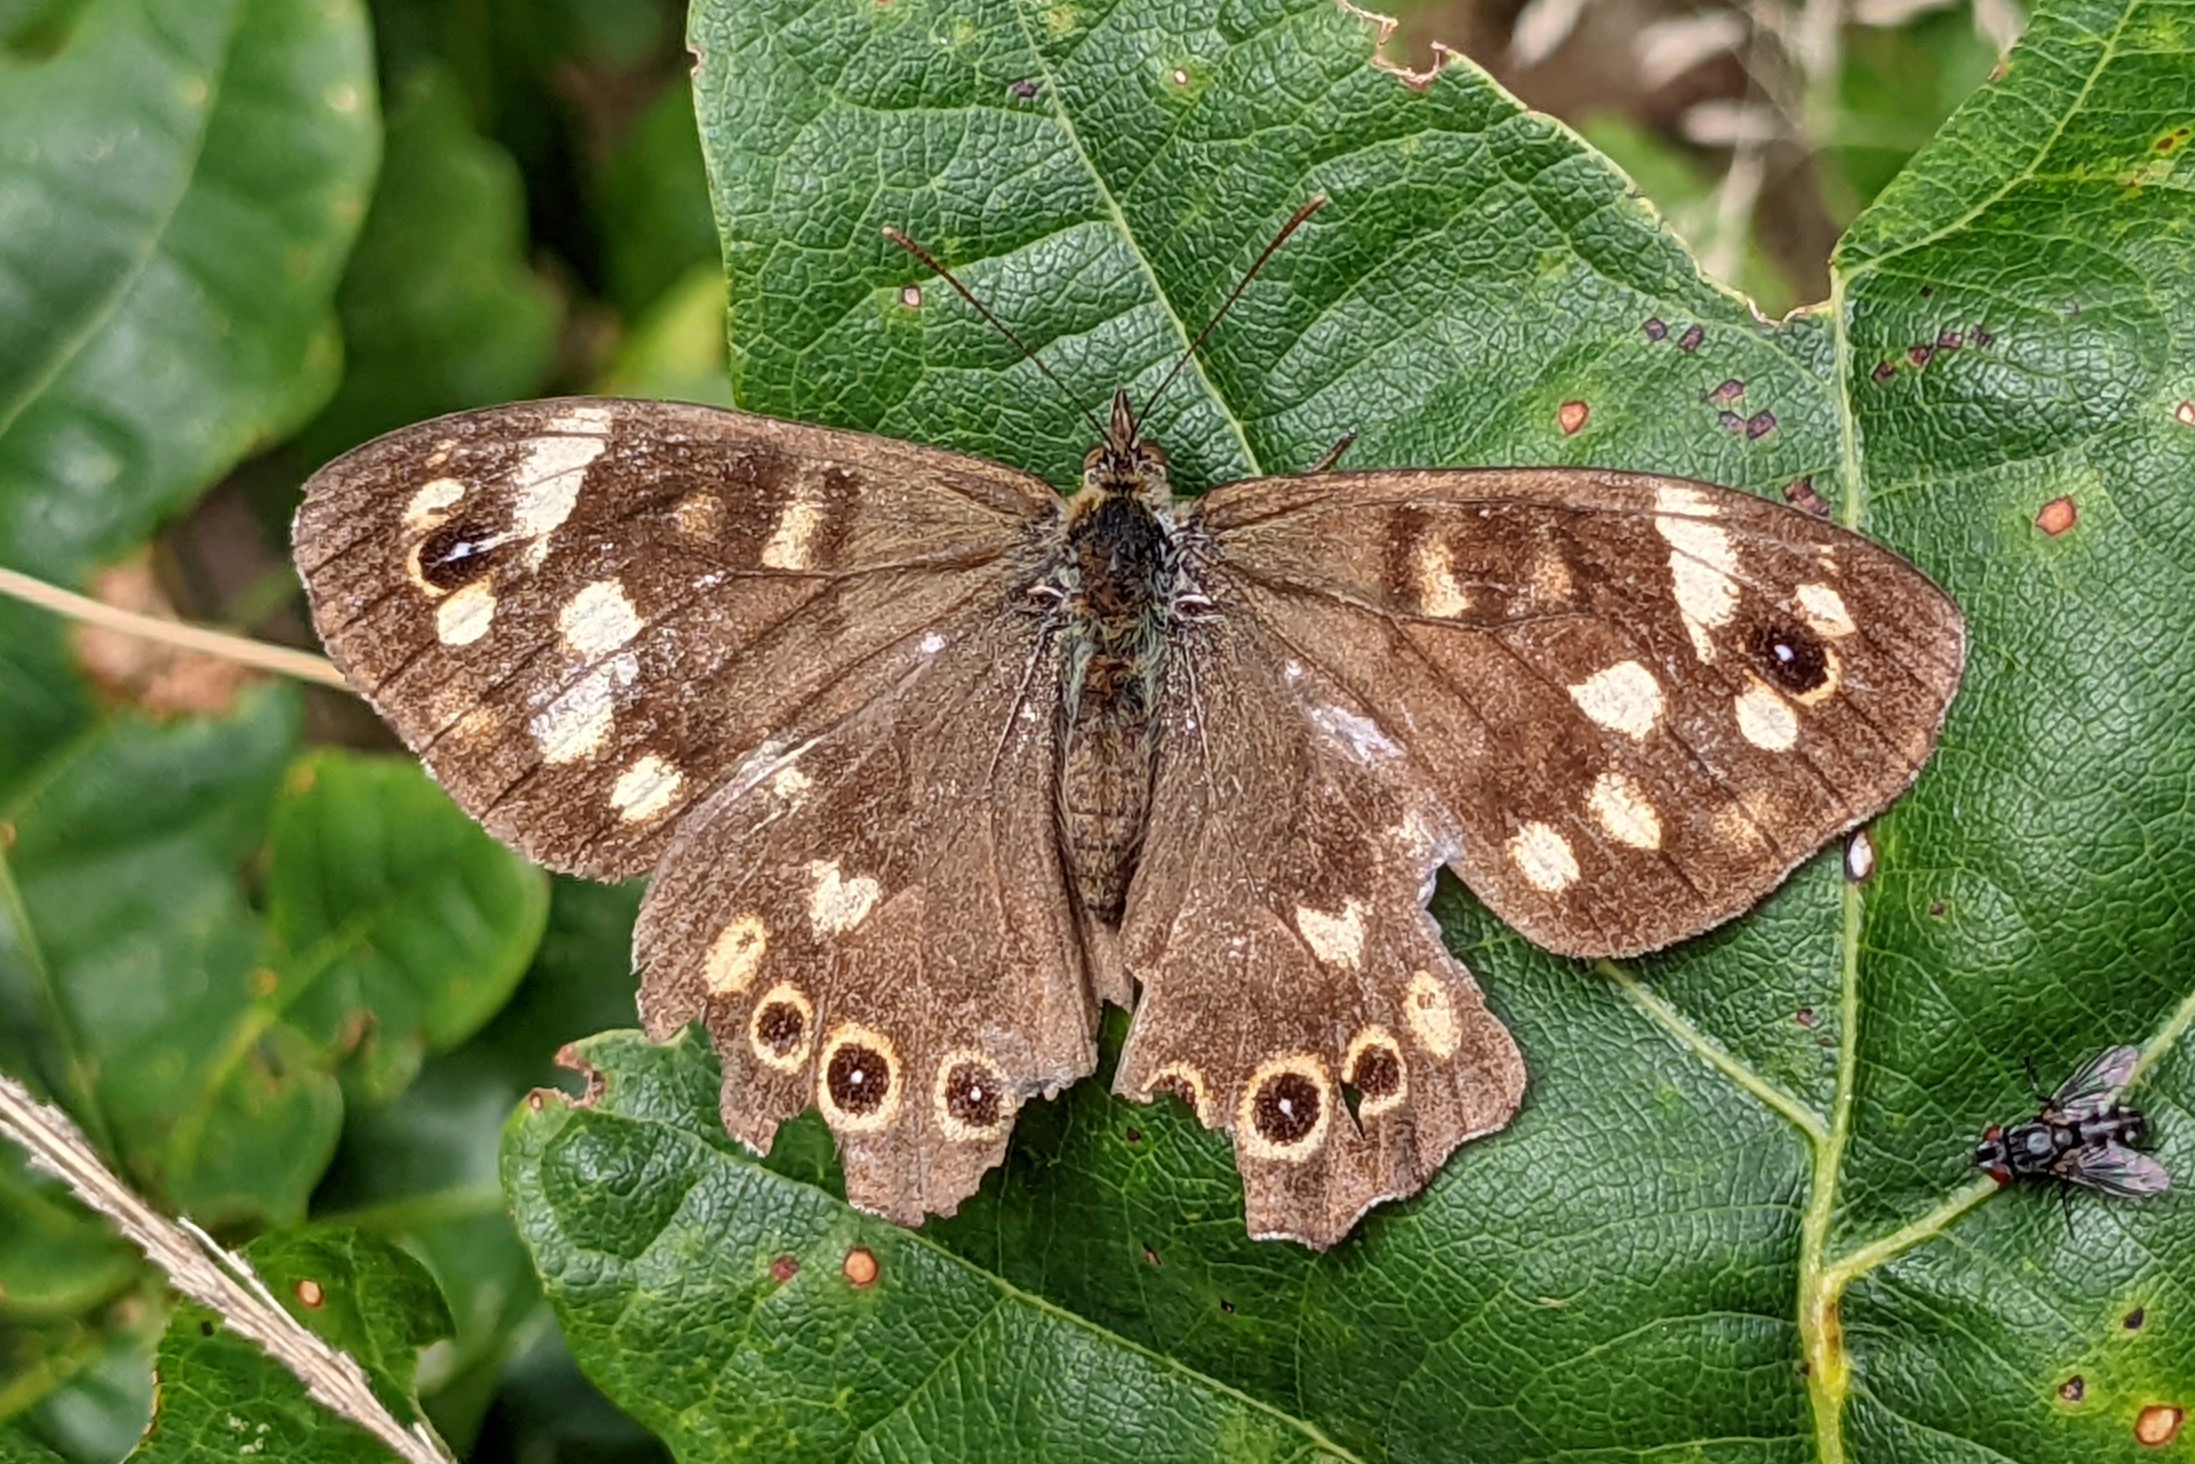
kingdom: Animalia
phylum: Arthropoda
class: Insecta
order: Lepidoptera
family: Nymphalidae
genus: Pararge
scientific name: Pararge aegeria
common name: Skovrandøje
